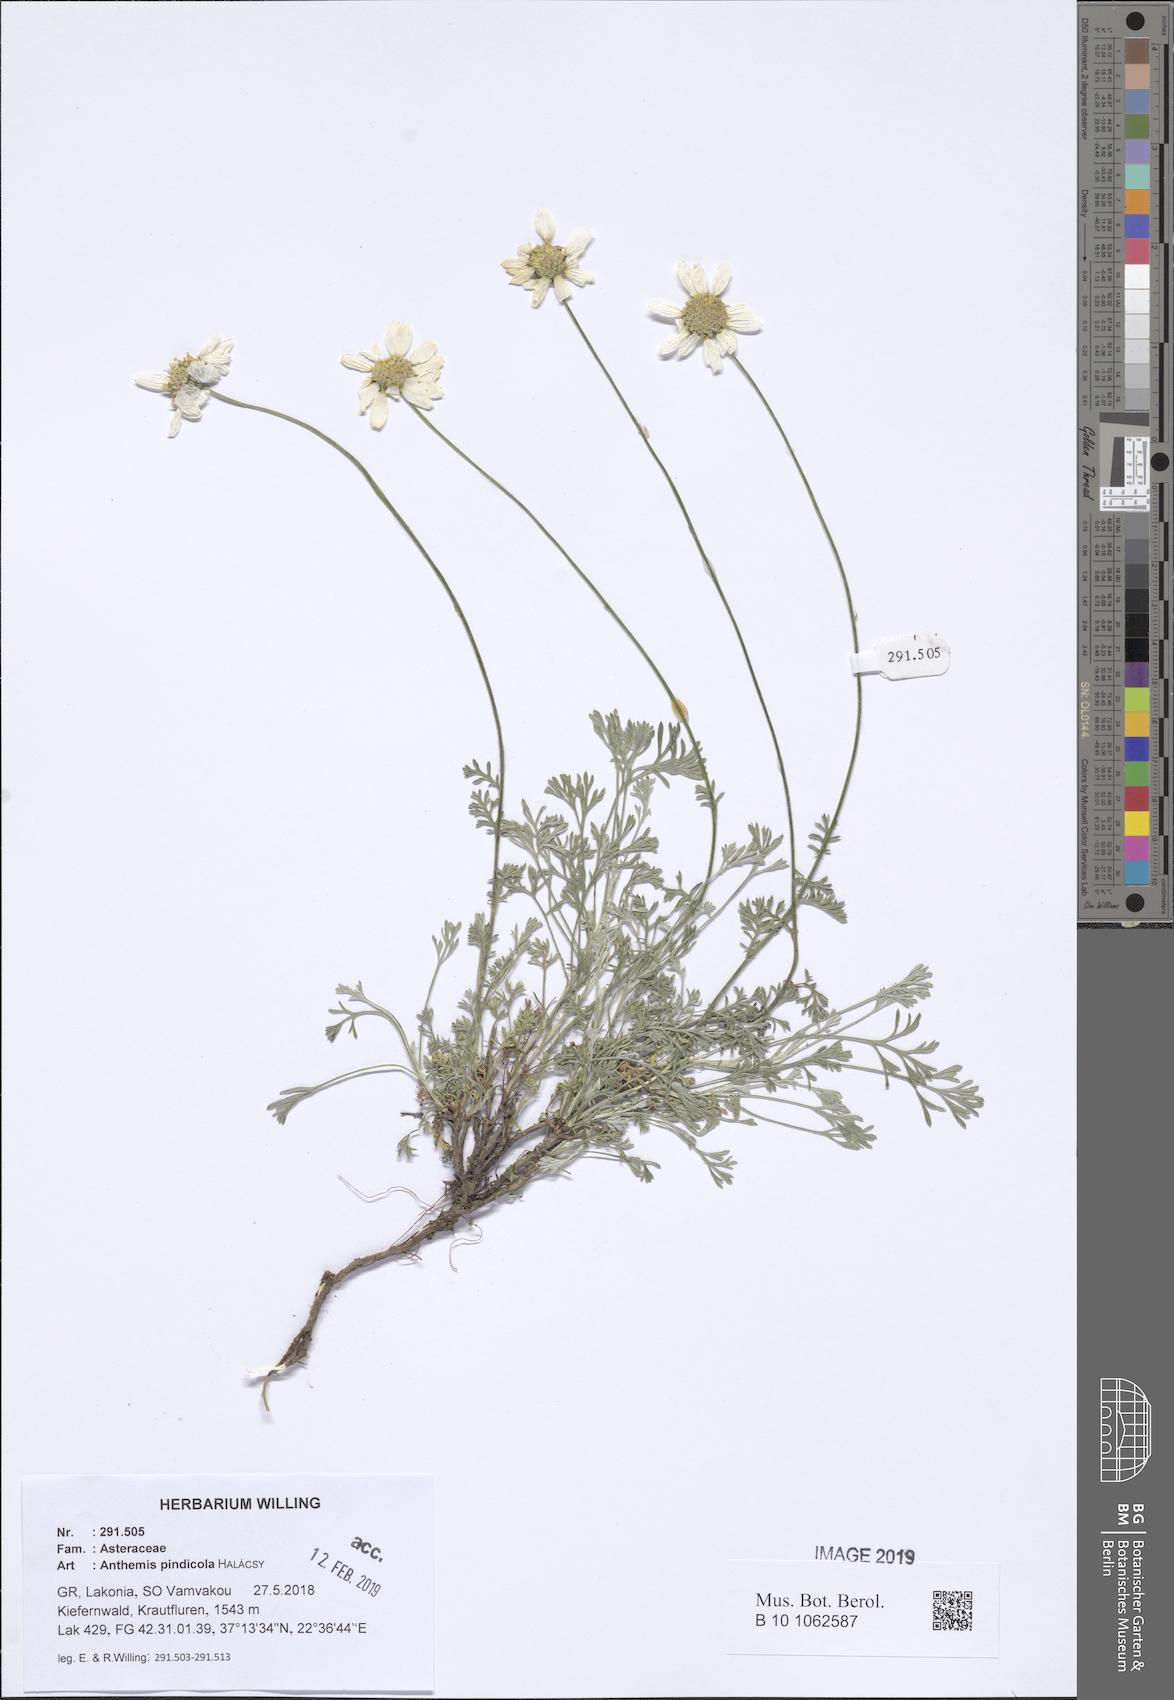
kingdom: Plantae
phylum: Tracheophyta
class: Magnoliopsida
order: Asterales
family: Asteraceae
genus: Anthemis
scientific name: Anthemis pindicola
